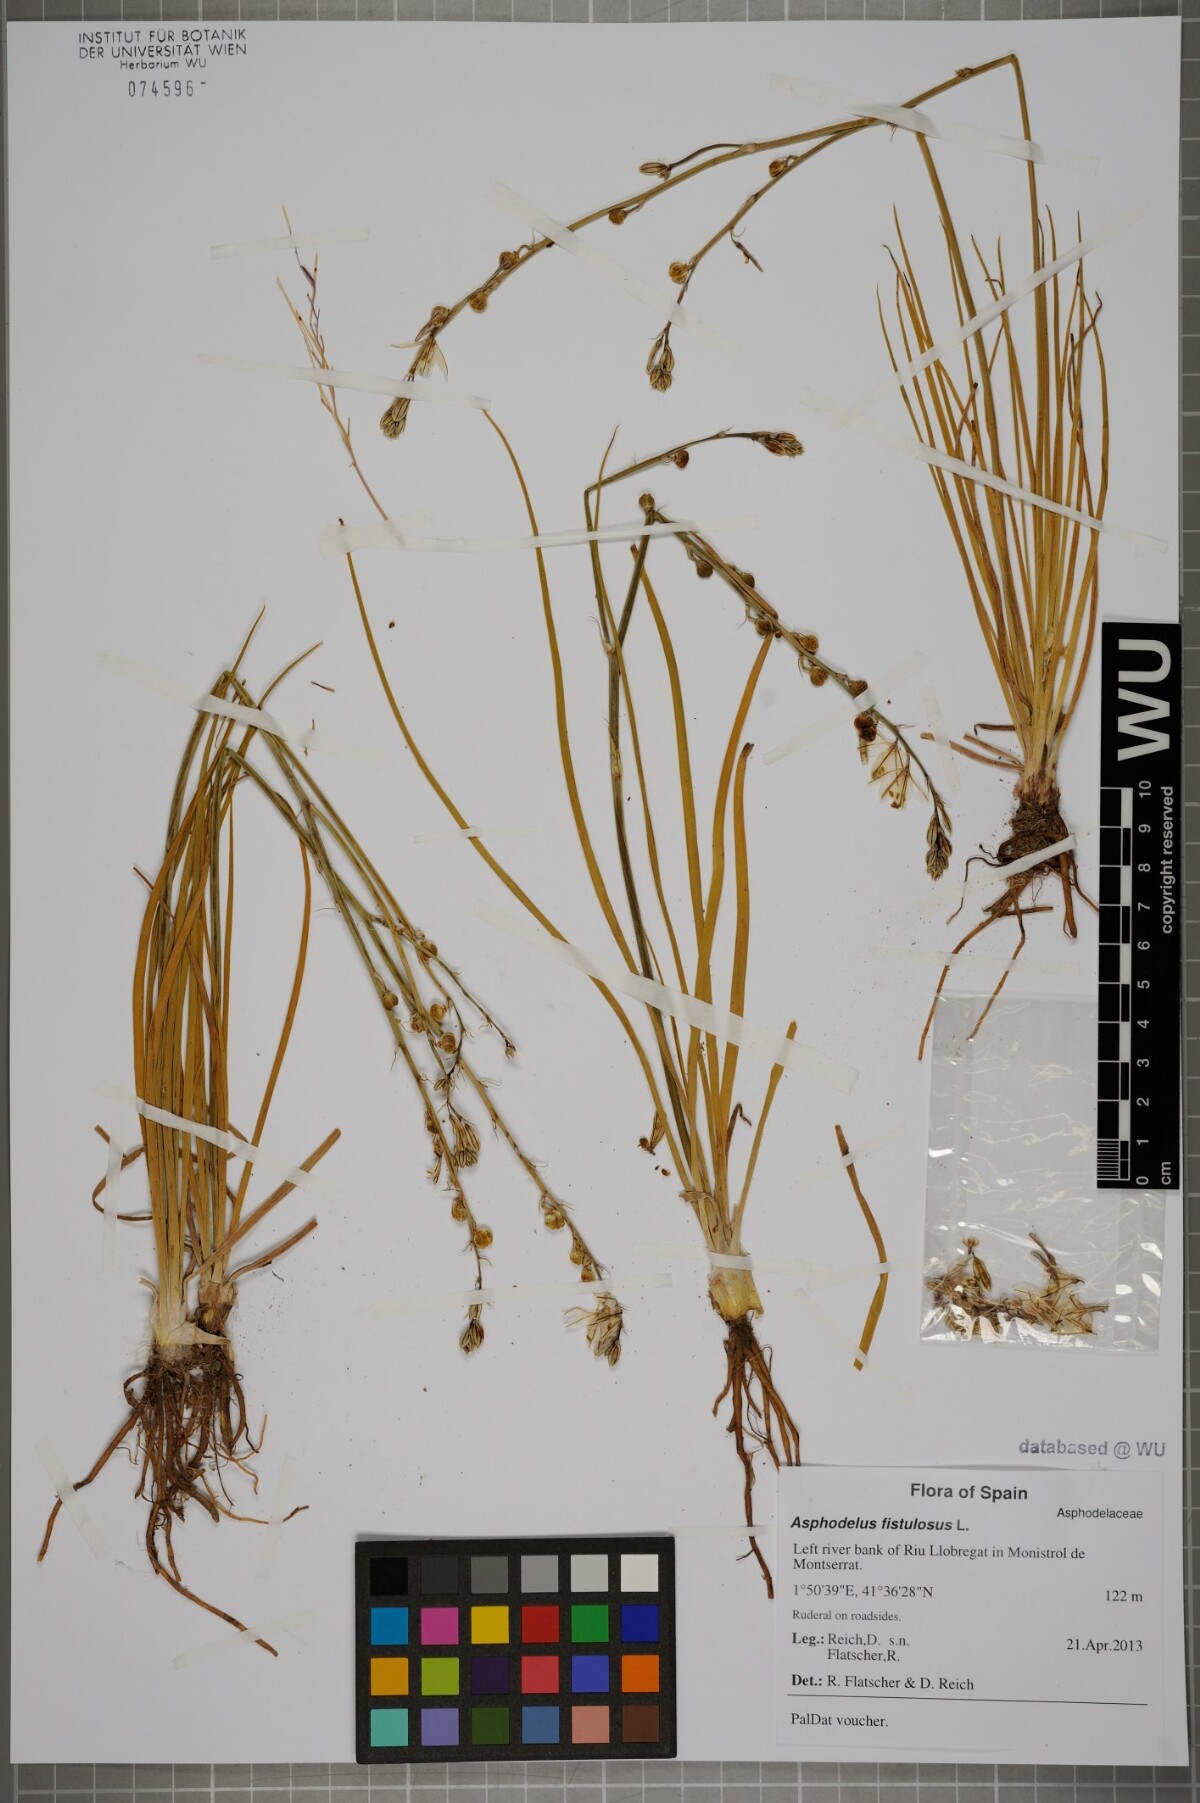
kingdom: Plantae
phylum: Tracheophyta
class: Liliopsida
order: Asparagales
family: Asphodelaceae
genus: Asphodelus
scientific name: Asphodelus fistulosus
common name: Onionweed
